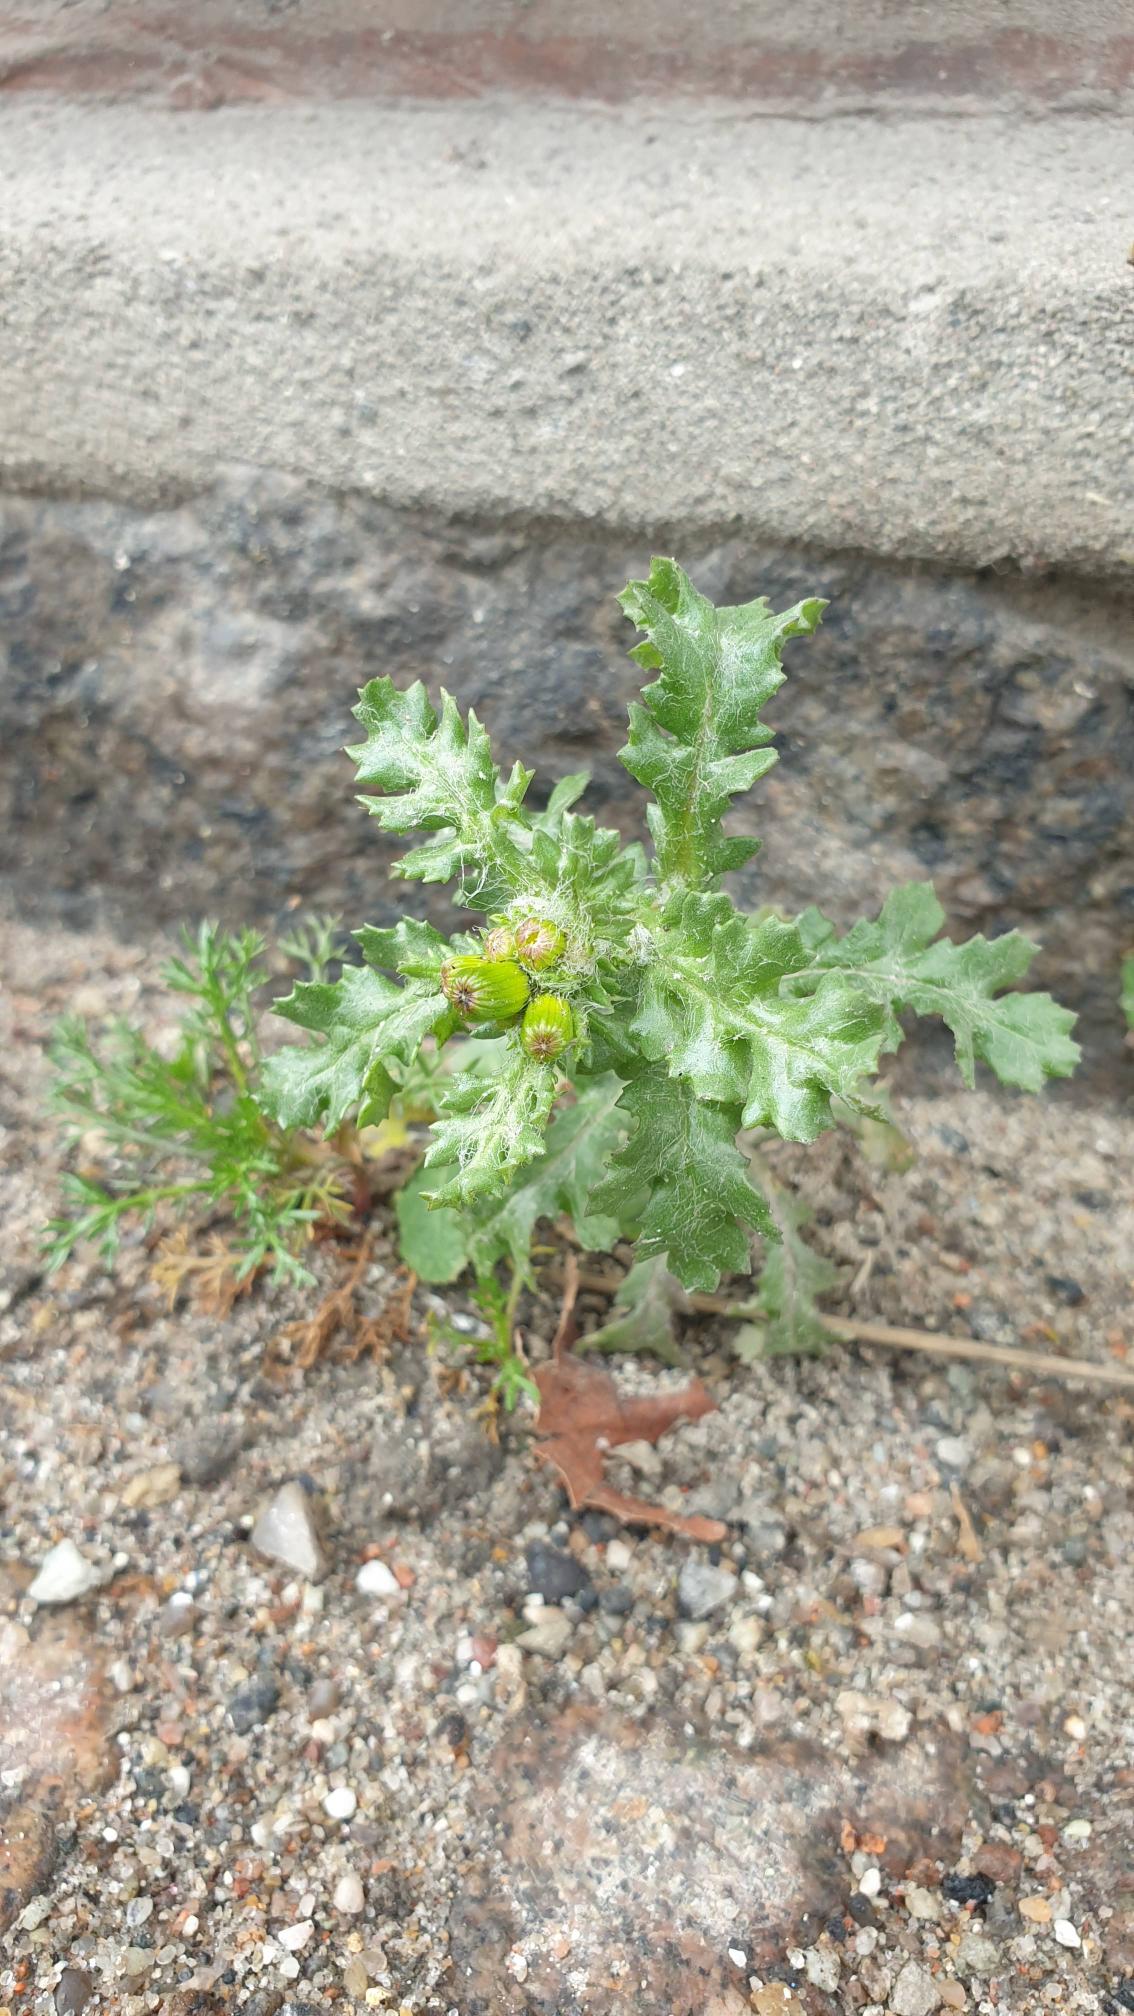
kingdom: Plantae
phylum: Tracheophyta
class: Magnoliopsida
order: Asterales
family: Asteraceae
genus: Senecio
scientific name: Senecio vulgaris
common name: Almindelig brandbæger
